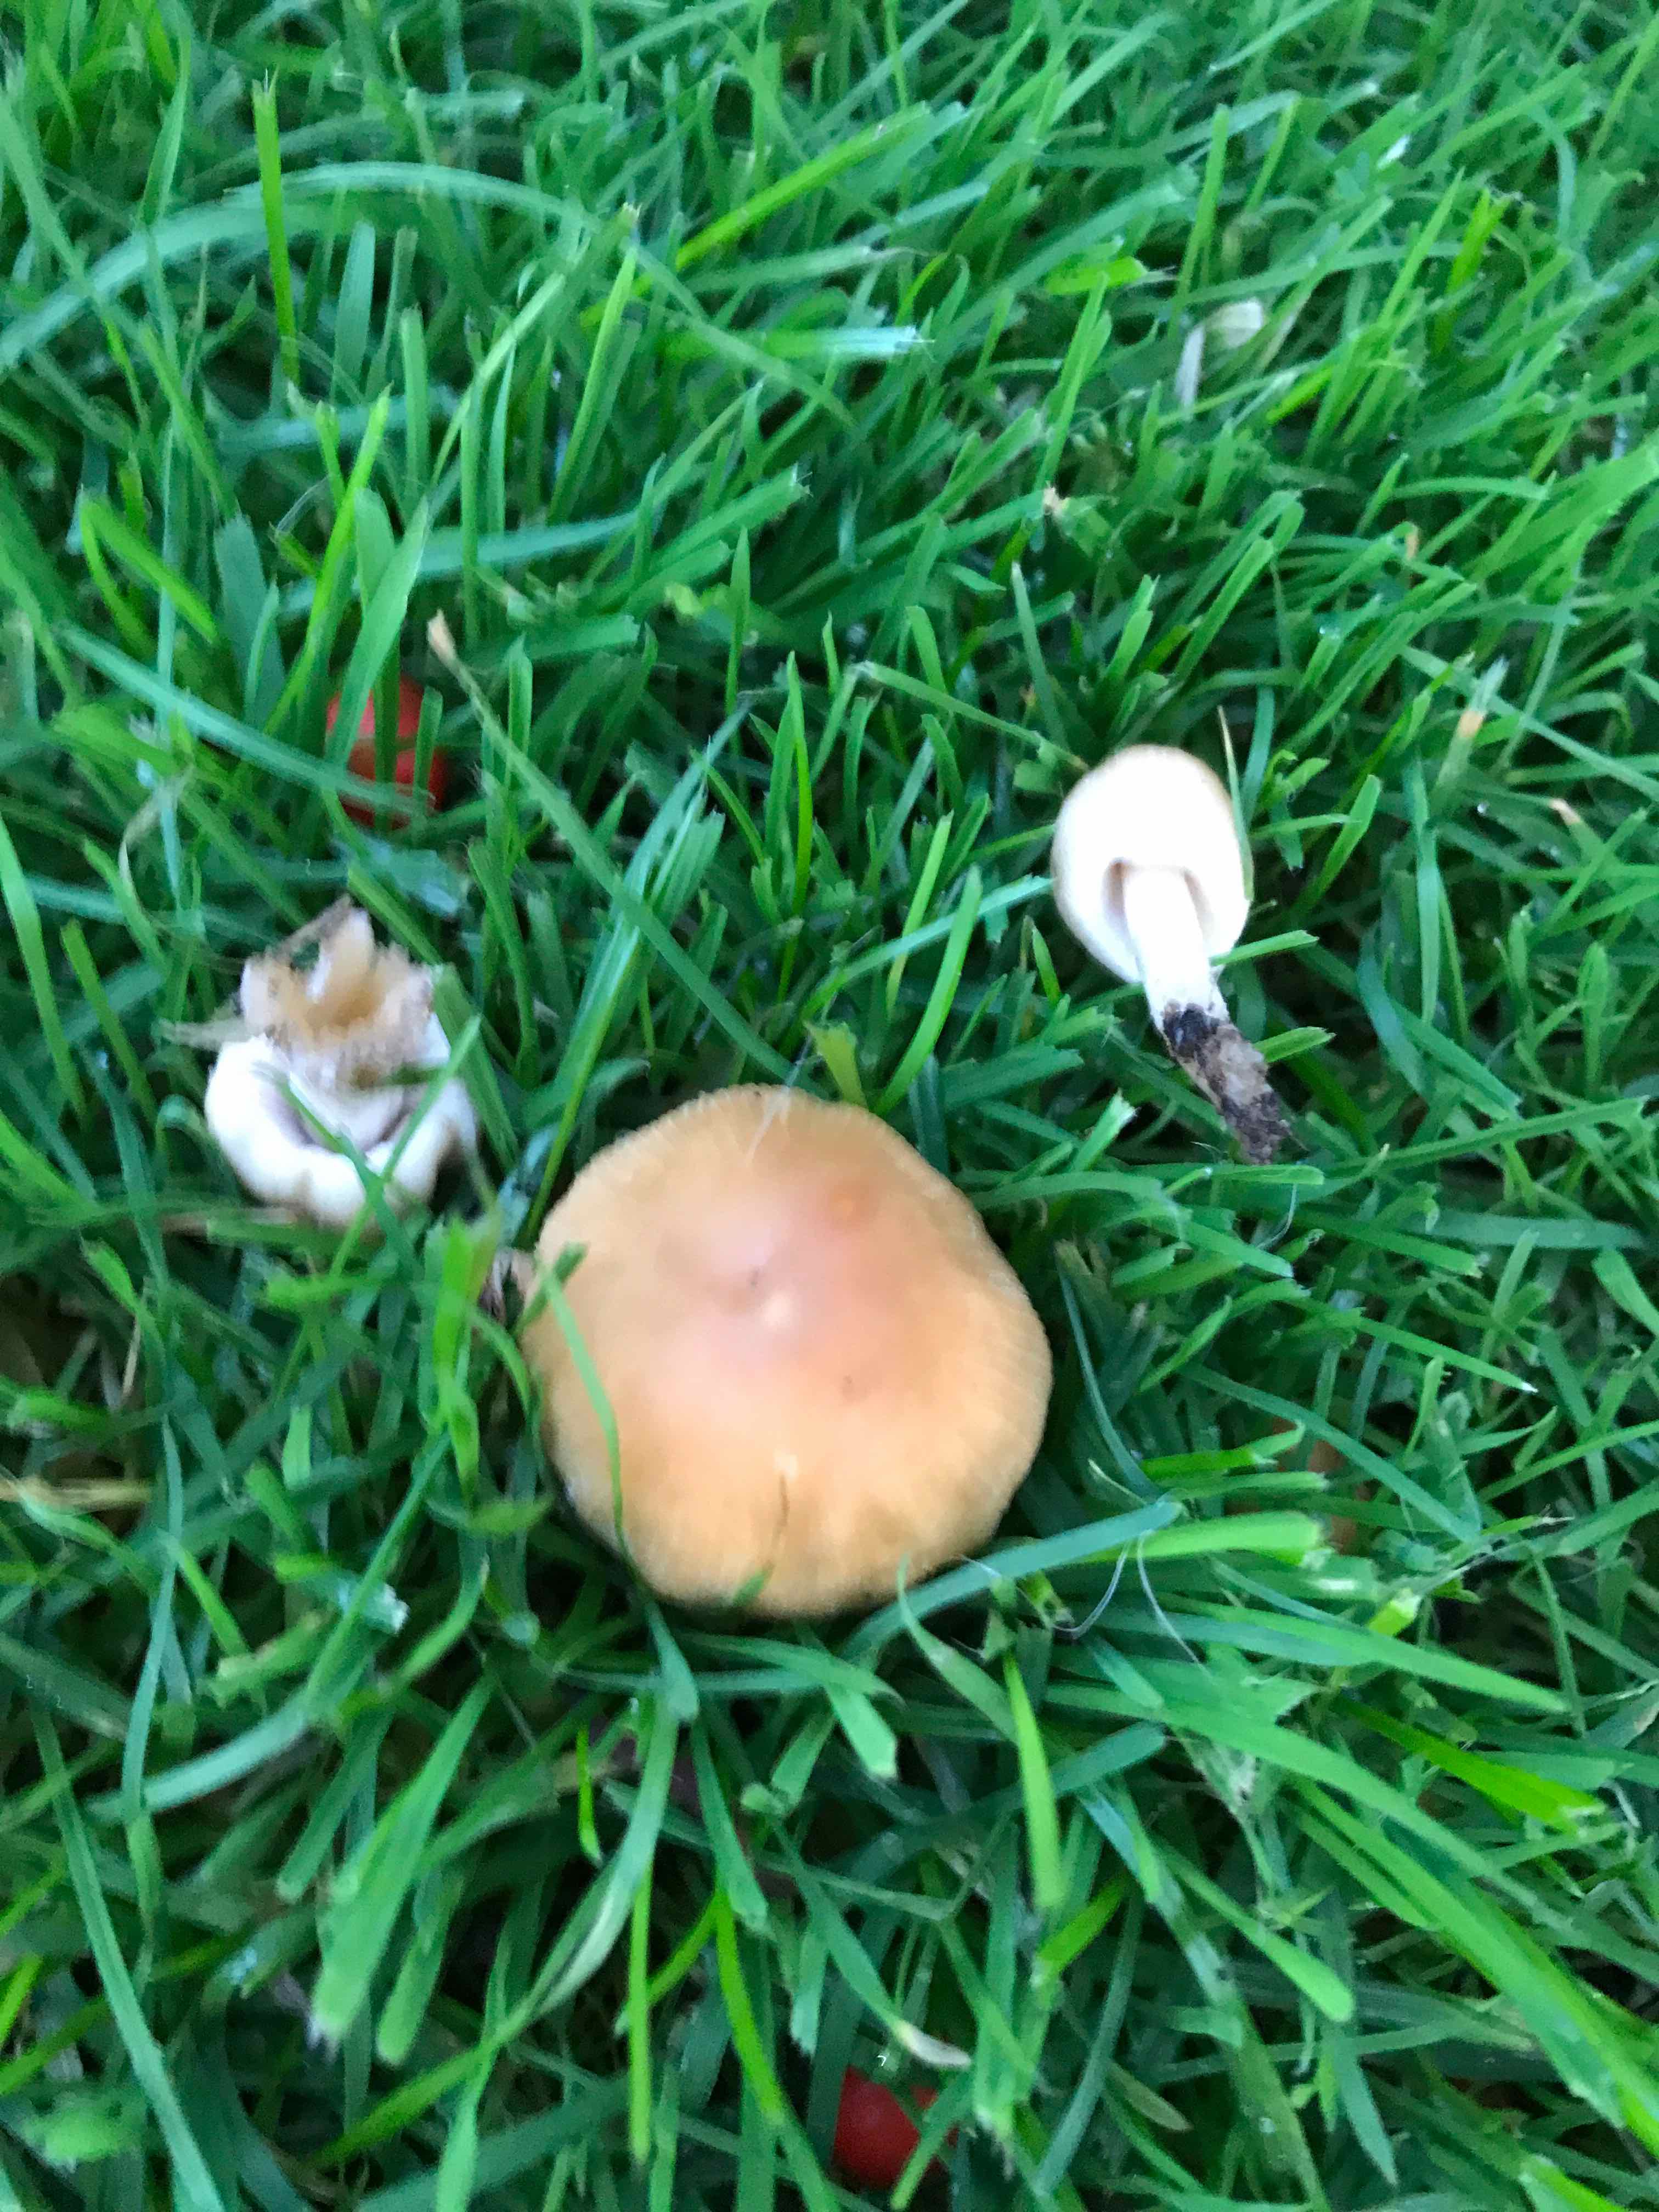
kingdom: Fungi
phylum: Basidiomycota
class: Agaricomycetes
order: Agaricales
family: Psathyrellaceae
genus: Coprinellus
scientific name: Coprinellus micaceus
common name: glimmer-blækhat
